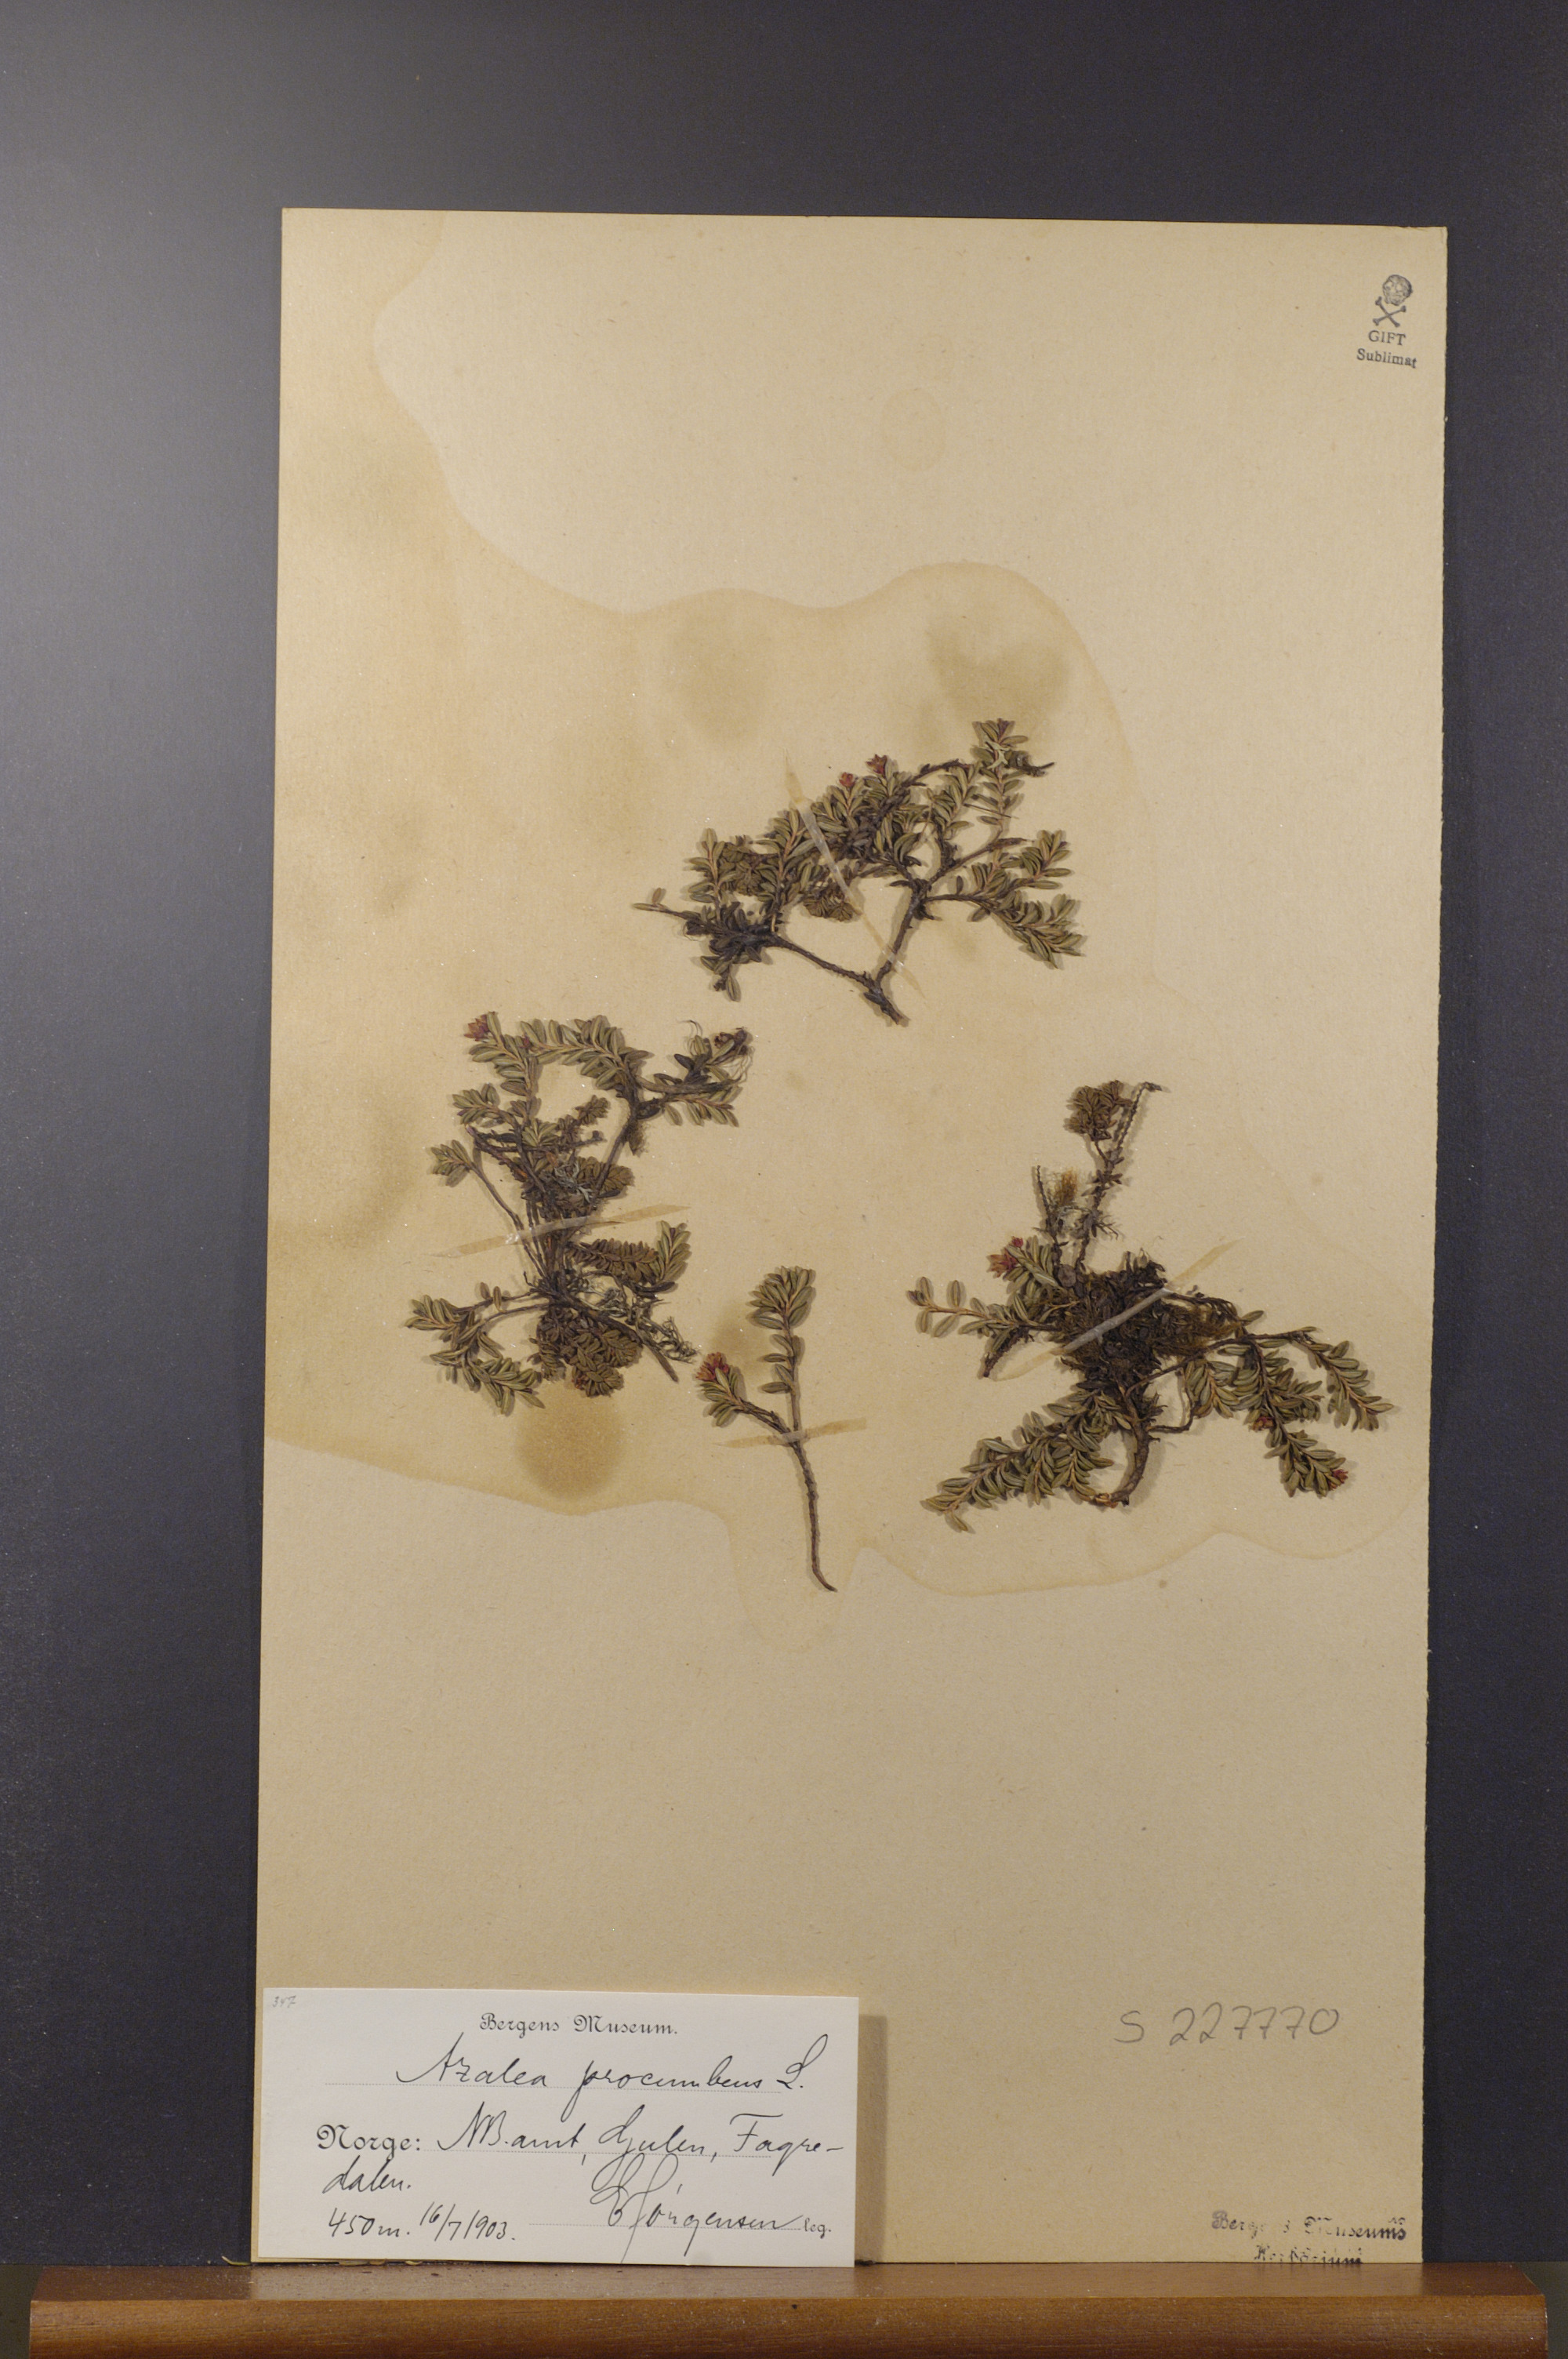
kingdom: Plantae
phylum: Tracheophyta
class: Magnoliopsida
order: Ericales
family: Ericaceae
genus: Kalmia
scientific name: Kalmia procumbens
